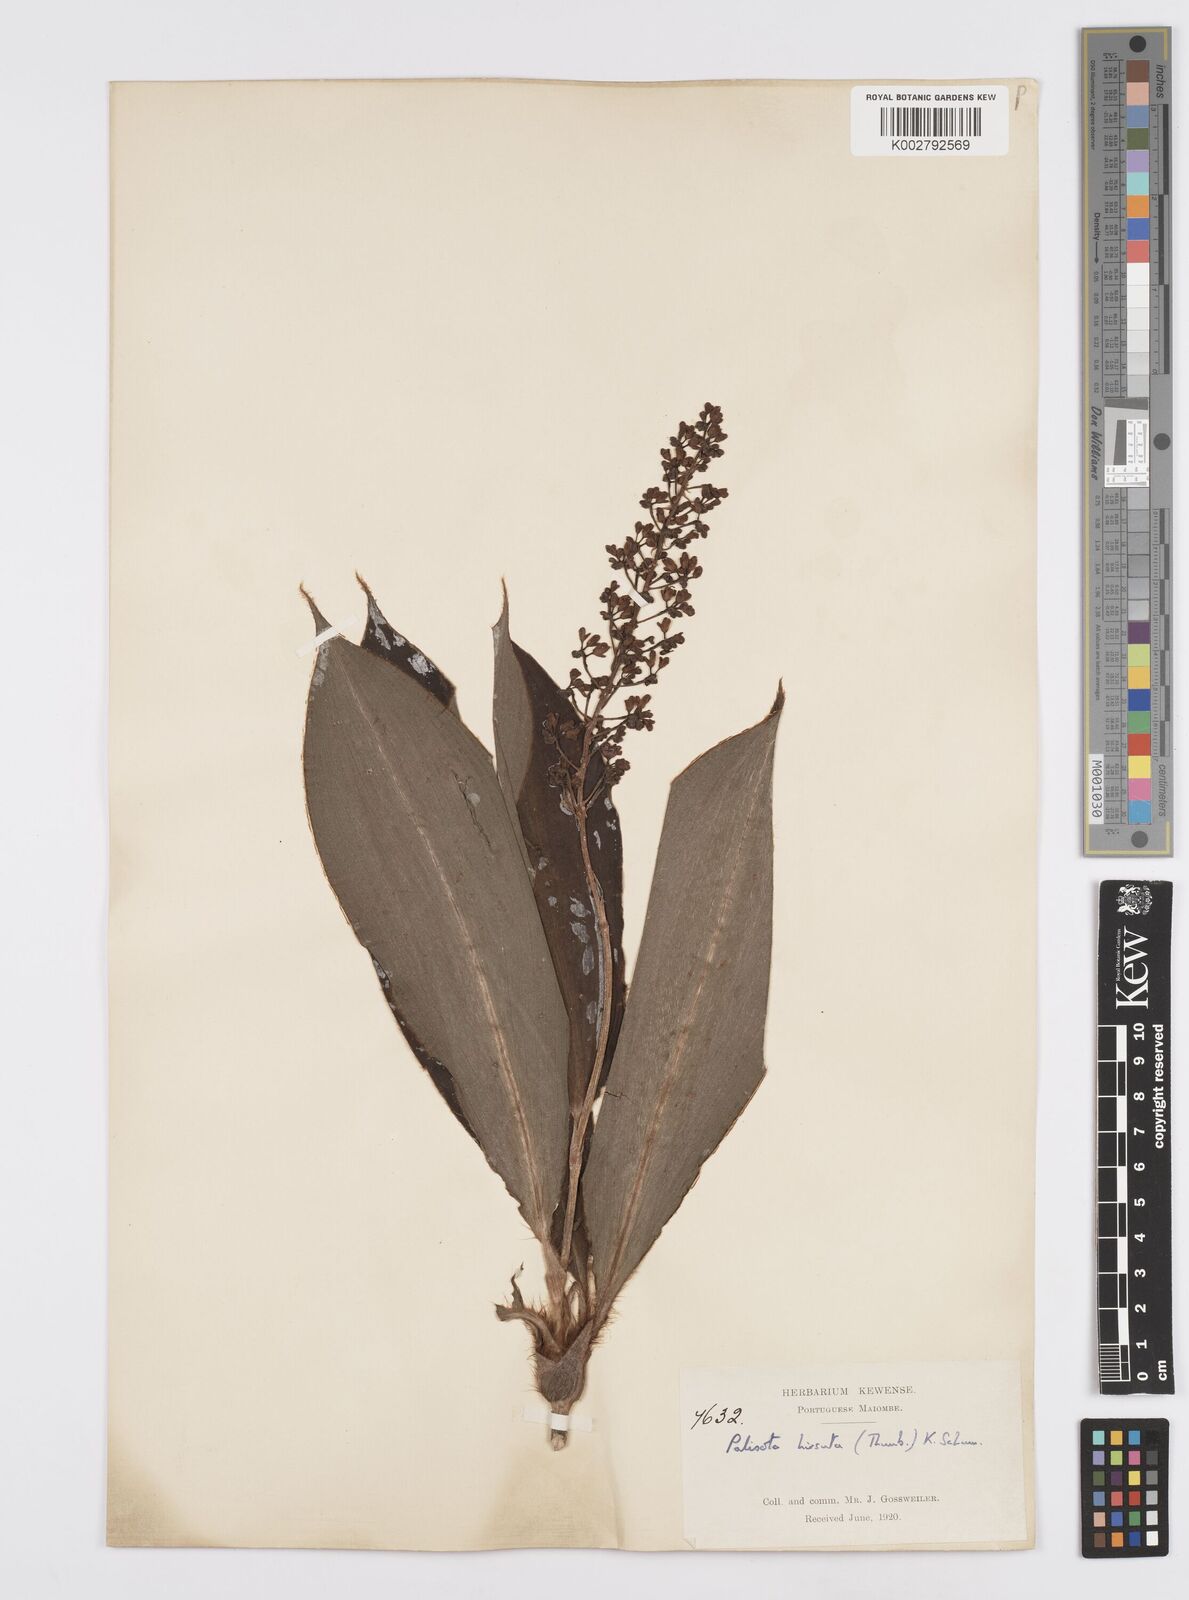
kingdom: Plantae
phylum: Tracheophyta
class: Liliopsida
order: Commelinales
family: Commelinaceae
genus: Palisota
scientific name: Palisota hirsuta
